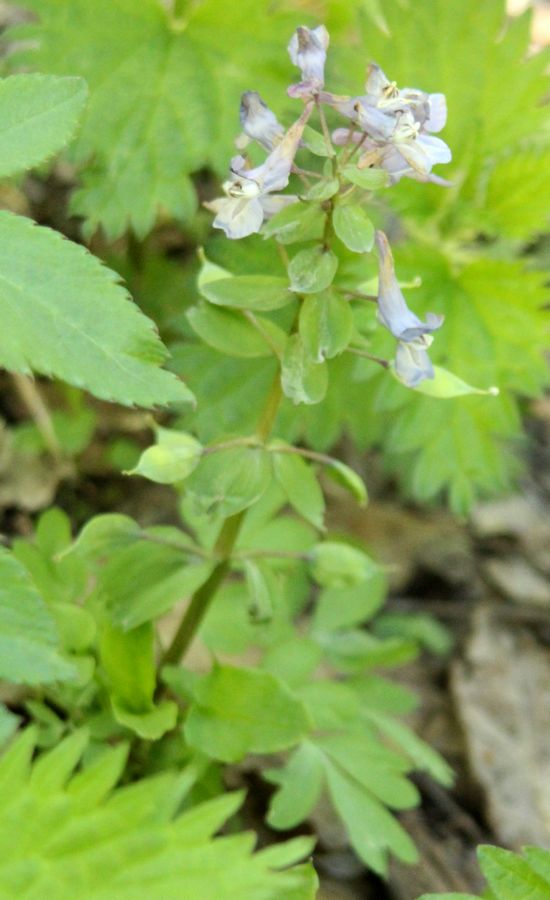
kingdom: Plantae
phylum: Tracheophyta
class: Magnoliopsida
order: Ranunculales
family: Papaveraceae
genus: Corydalis
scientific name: Corydalis solida
